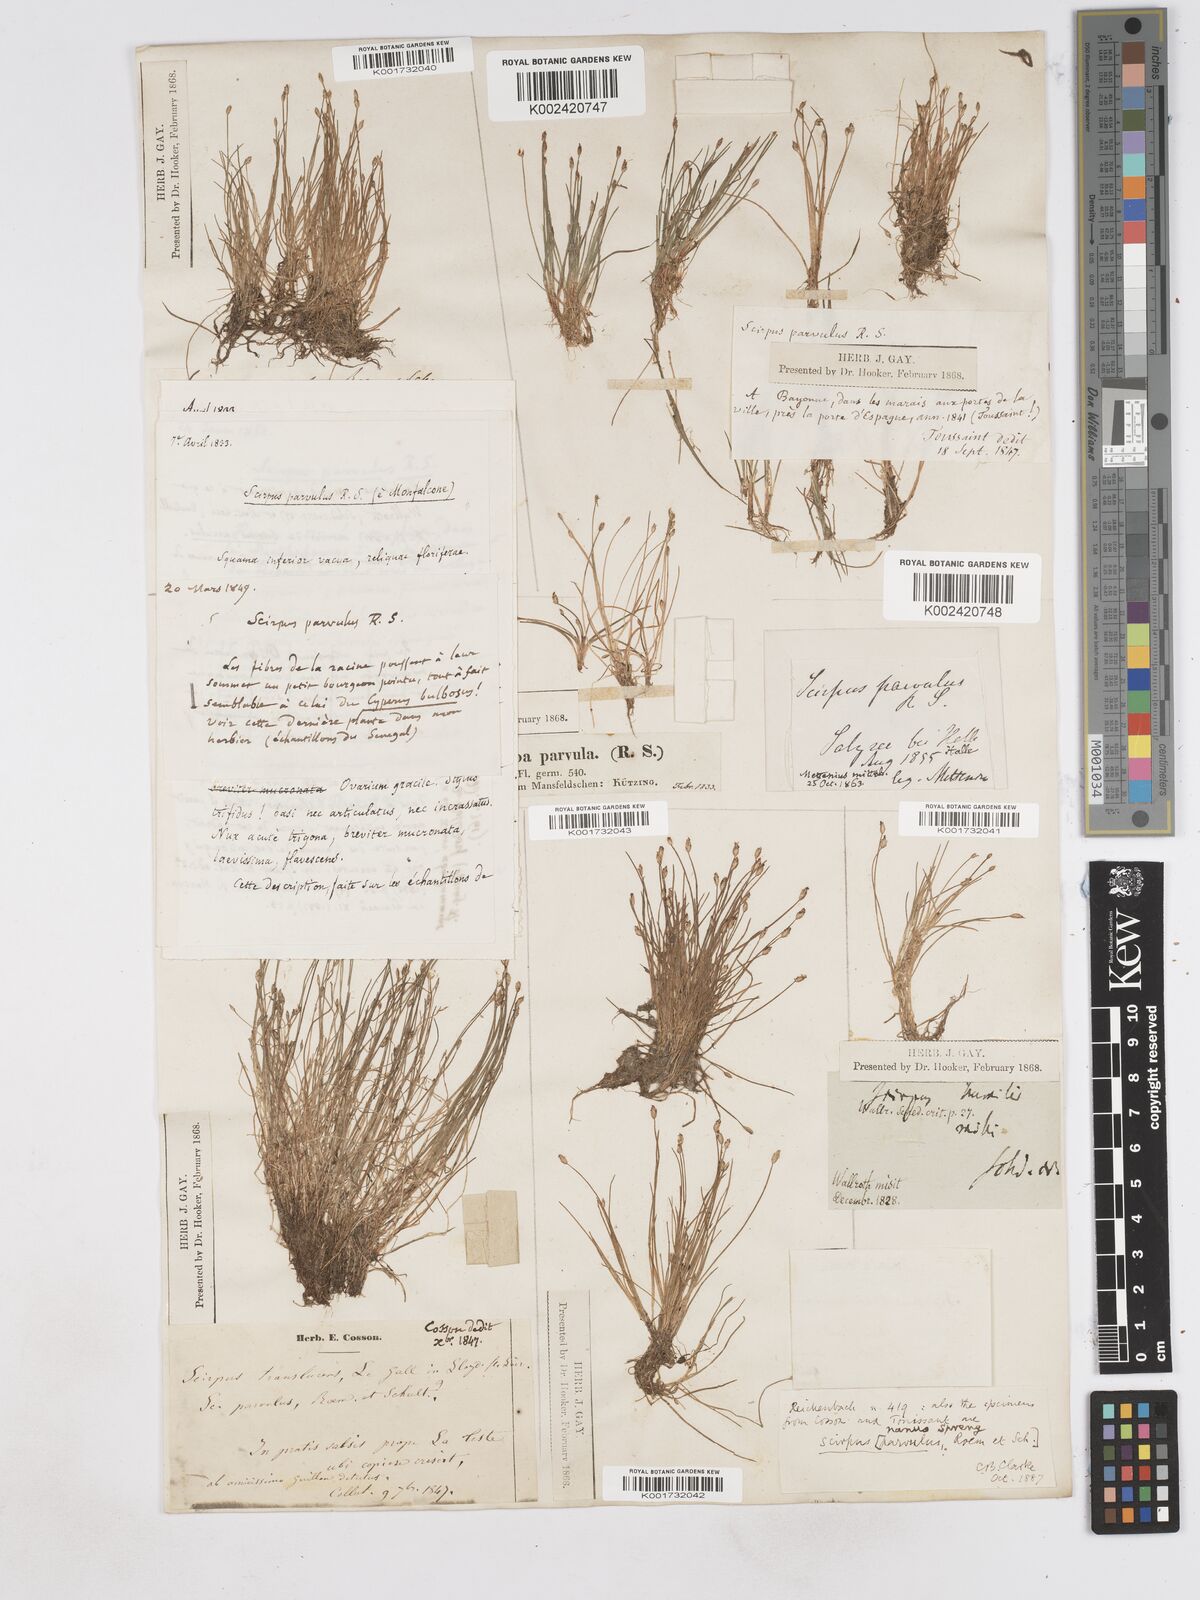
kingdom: Plantae
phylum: Tracheophyta
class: Liliopsida
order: Poales
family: Cyperaceae
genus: Eleocharis
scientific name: Eleocharis nana
